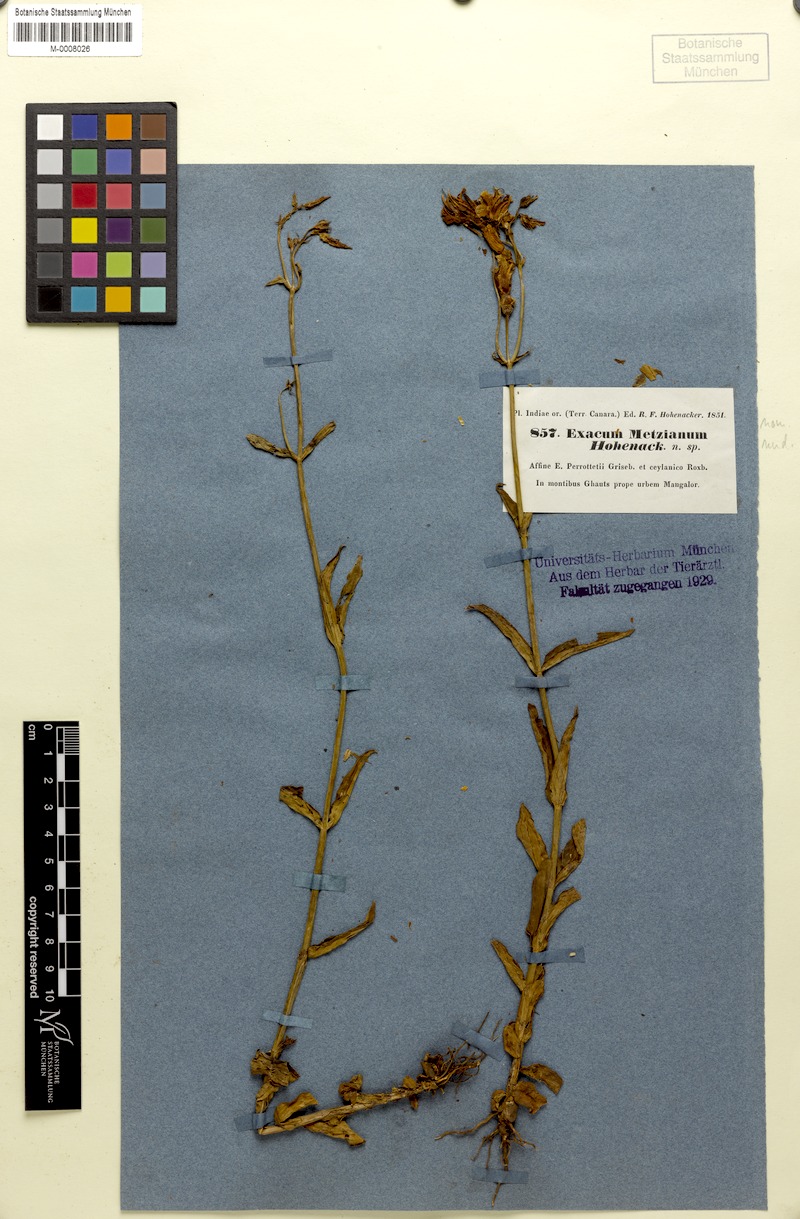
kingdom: Plantae
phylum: Tracheophyta
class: Magnoliopsida
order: Gentianales
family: Gentianaceae
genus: Exacum
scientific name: Exacum tetragonum
